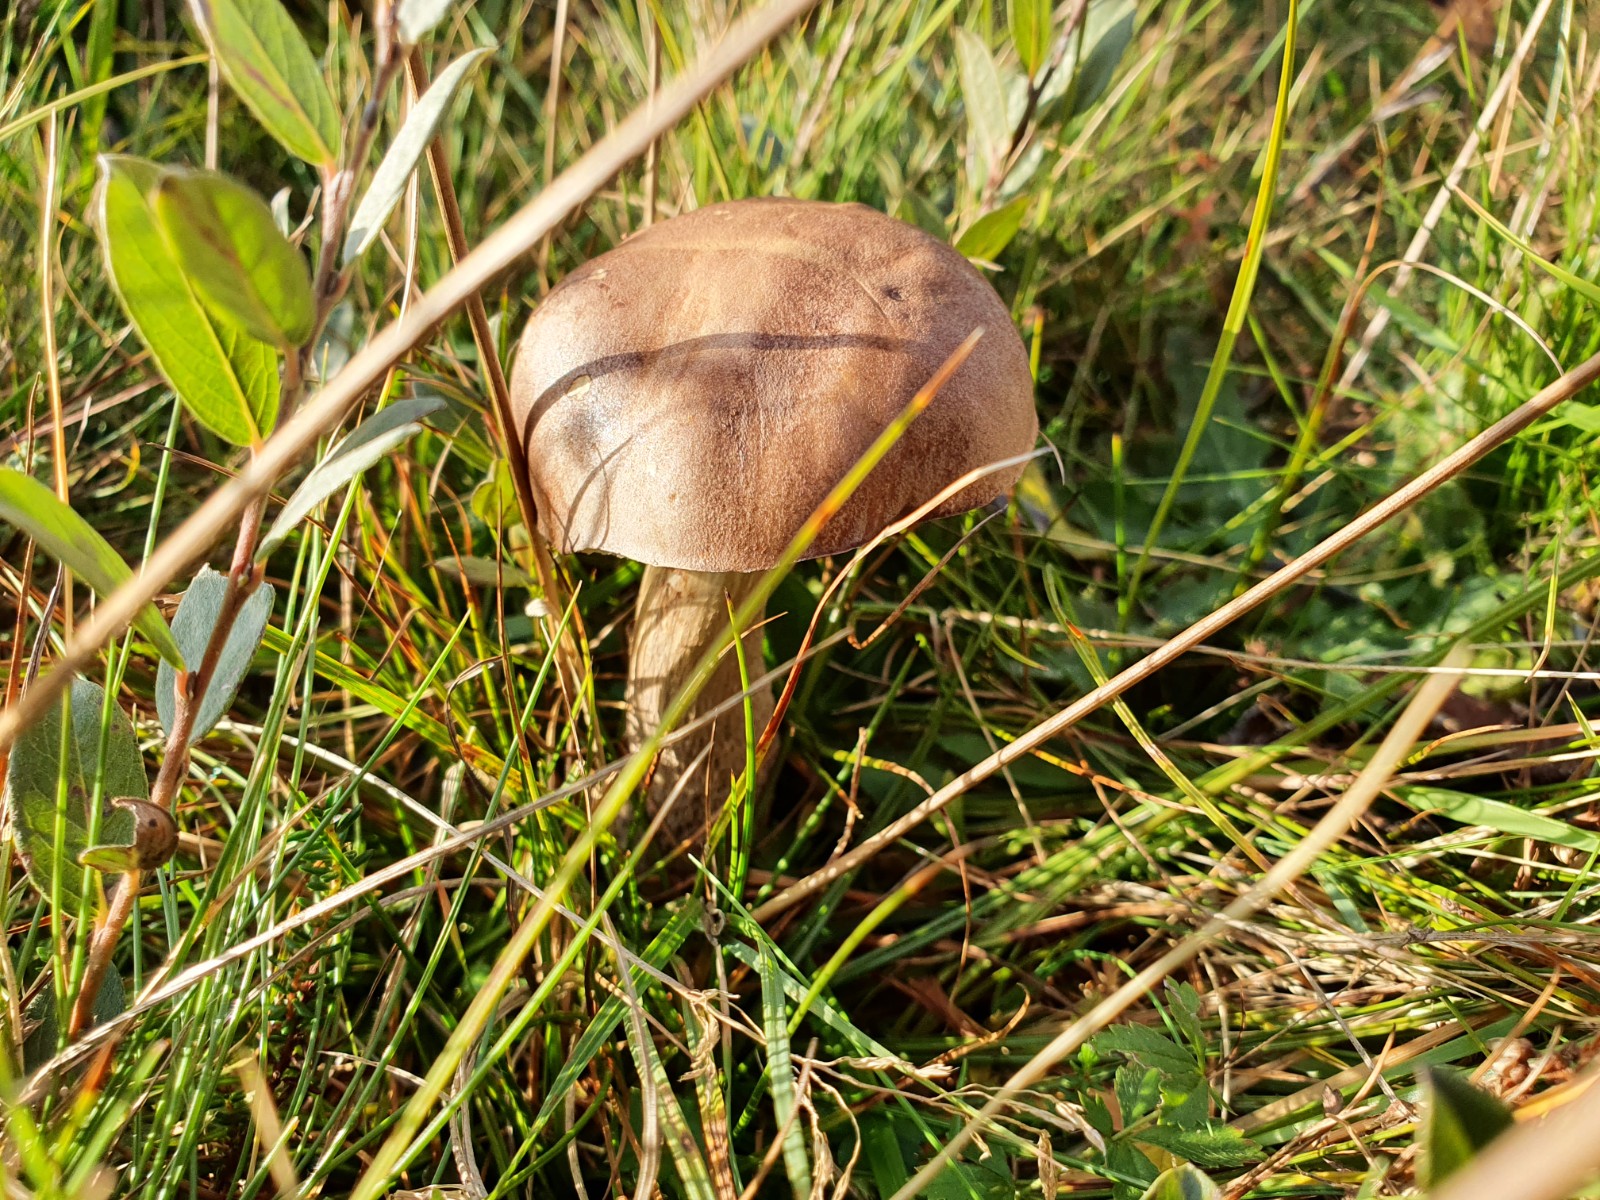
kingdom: Fungi
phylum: Basidiomycota
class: Agaricomycetes
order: Boletales
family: Boletaceae
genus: Leccinum
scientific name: Leccinum cyaneobasileucum
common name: almindelig skælrørhat
